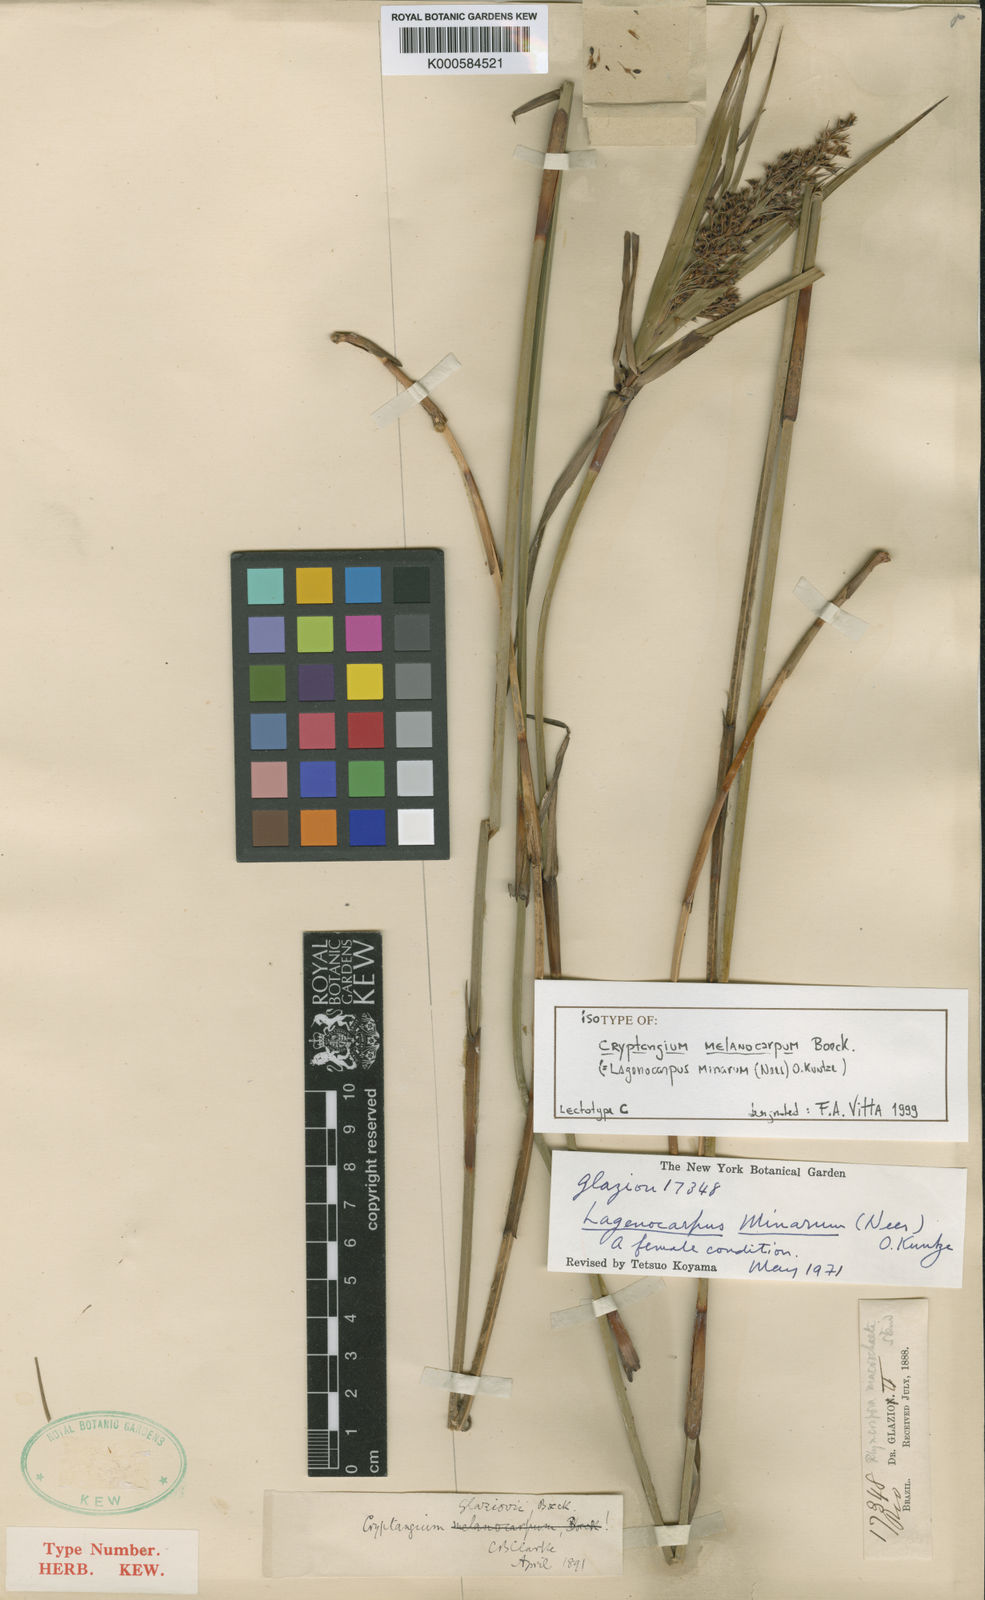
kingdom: Plantae
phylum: Tracheophyta
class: Liliopsida
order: Poales
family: Cyperaceae
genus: Krenakia
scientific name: Krenakia minarum
